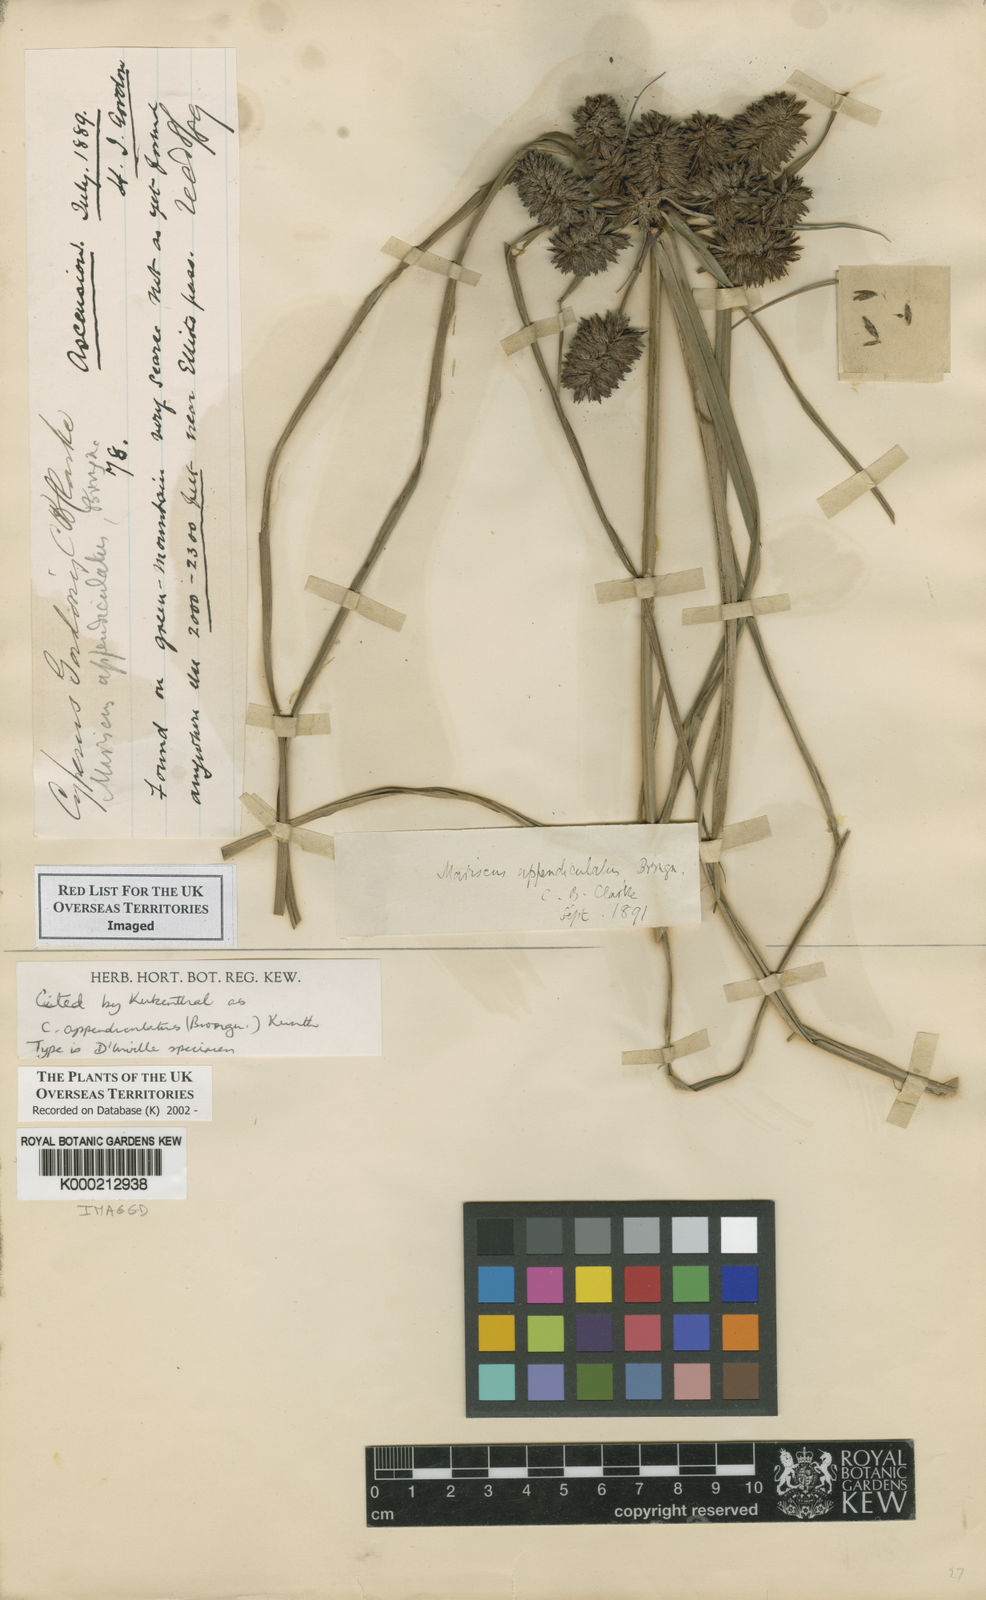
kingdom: Plantae
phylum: Tracheophyta
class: Liliopsida
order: Poales
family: Cyperaceae
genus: Cyperus
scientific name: Cyperus appendiculatus
